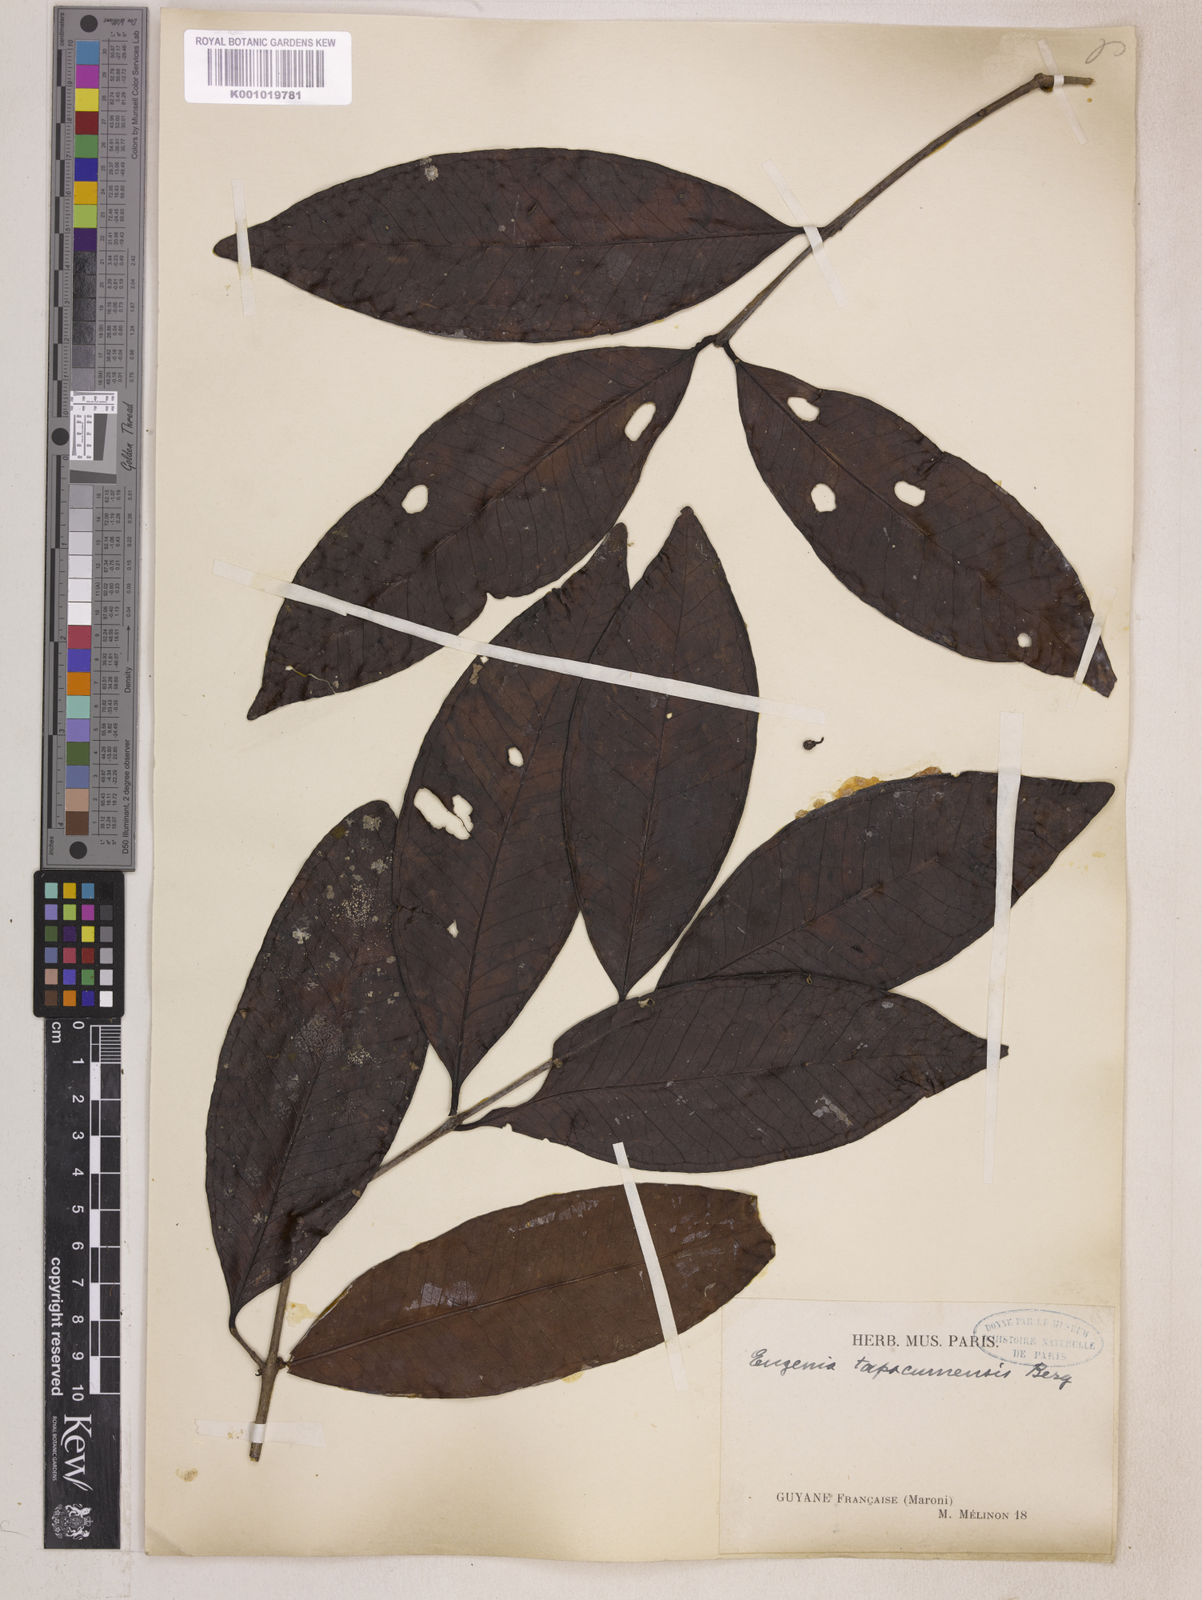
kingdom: Plantae
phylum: Tracheophyta
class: Magnoliopsida
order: Myrtales
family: Myrtaceae
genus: Eugenia
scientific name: Eugenia stictopetala
